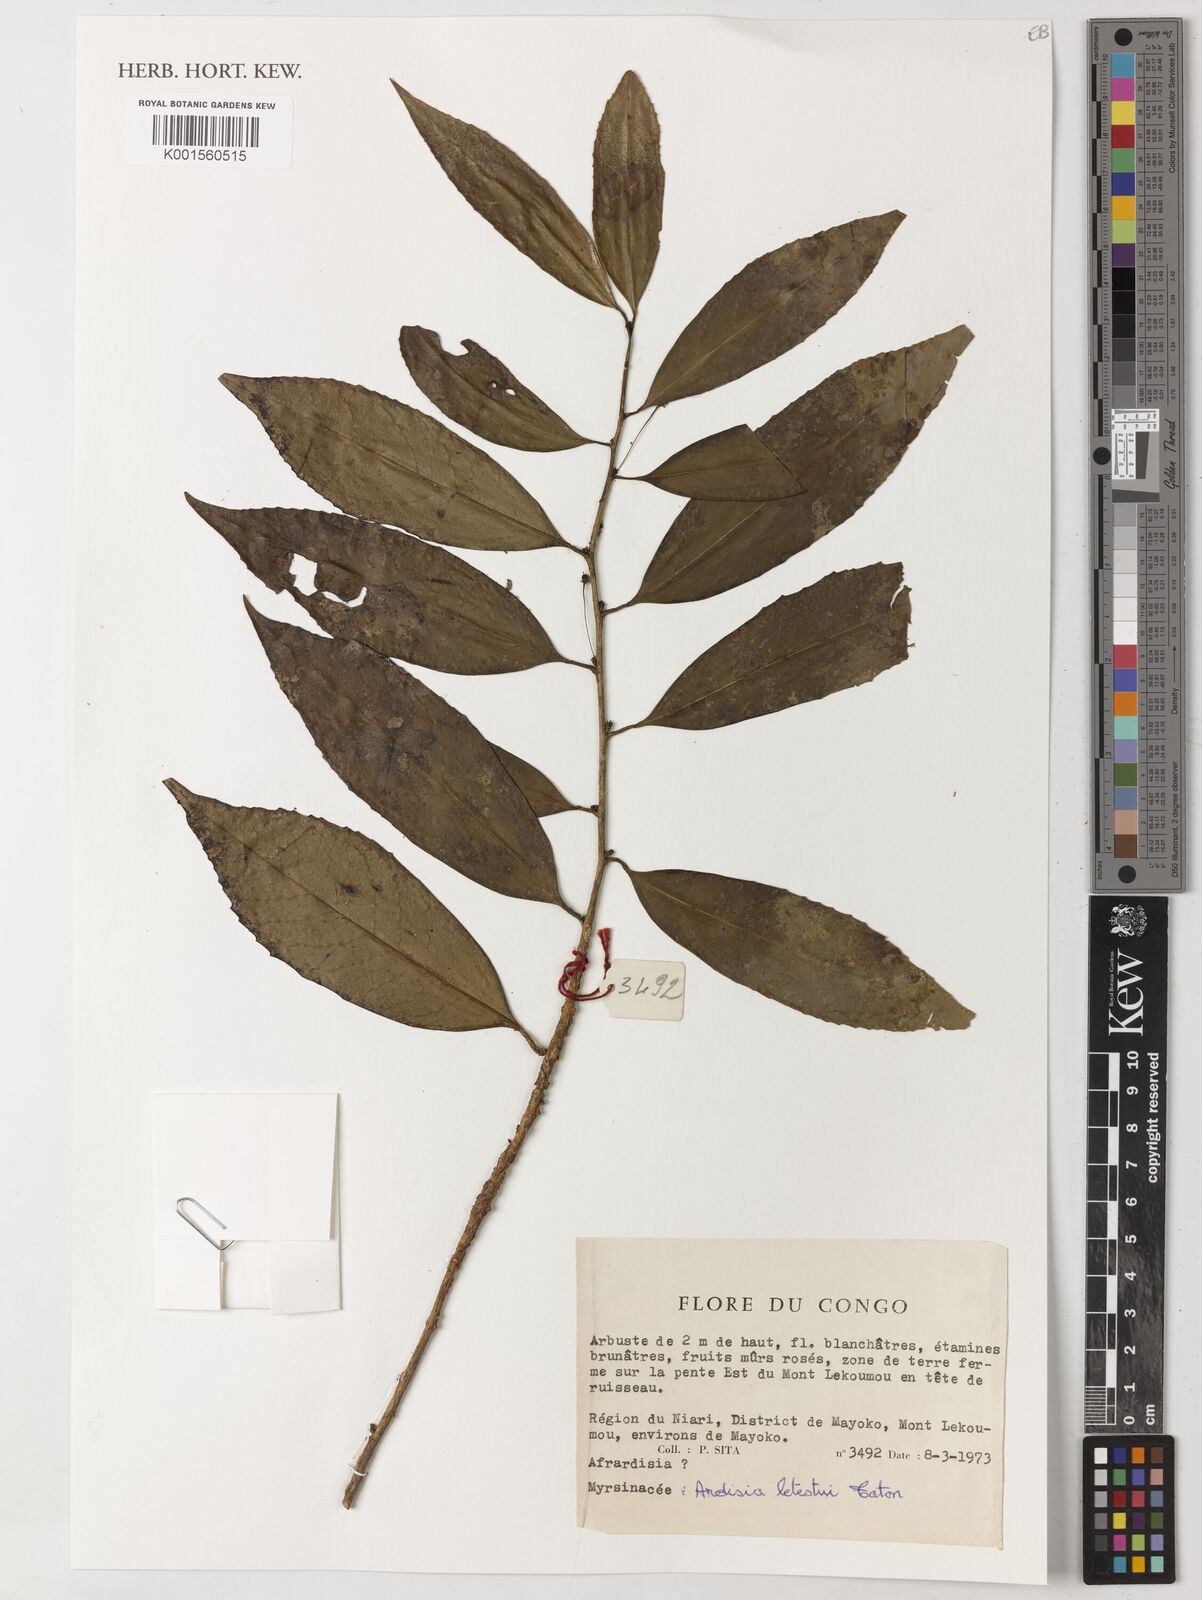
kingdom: Plantae
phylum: Tracheophyta
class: Magnoliopsida
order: Ericales
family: Primulaceae
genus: Ardisia
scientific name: Ardisia
